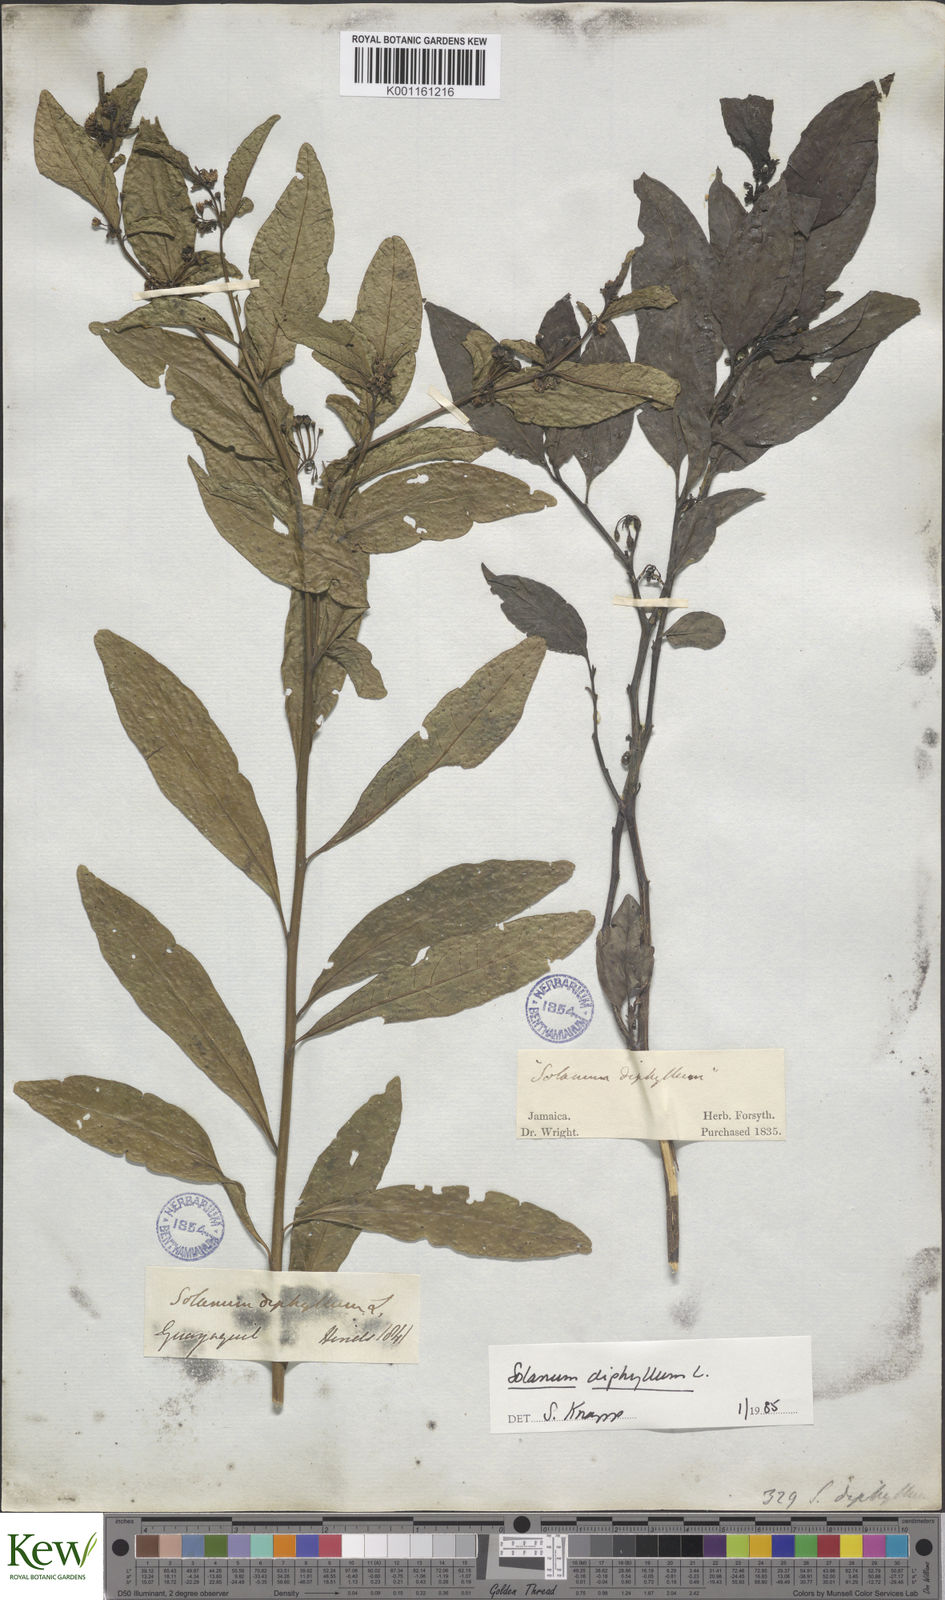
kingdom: Plantae
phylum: Tracheophyta
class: Magnoliopsida
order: Solanales
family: Solanaceae
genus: Solanum
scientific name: Solanum diphyllum
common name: Twoleaf nightshade
